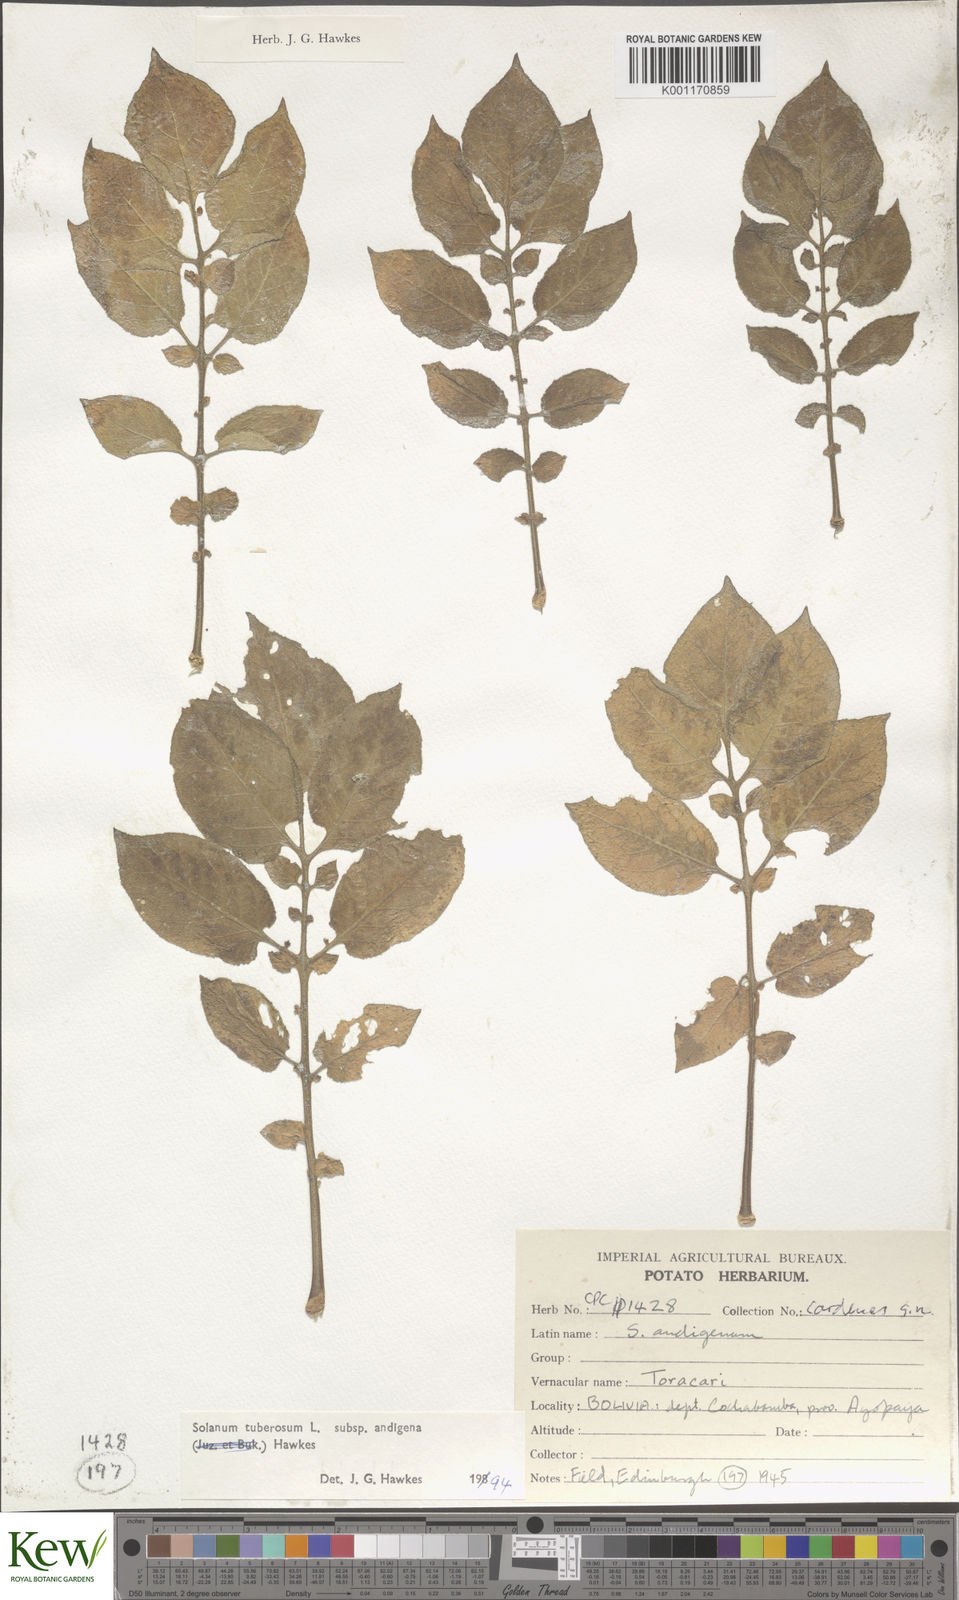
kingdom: Plantae
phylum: Tracheophyta
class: Magnoliopsida
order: Solanales
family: Solanaceae
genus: Solanum
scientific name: Solanum tuberosum
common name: Potato
